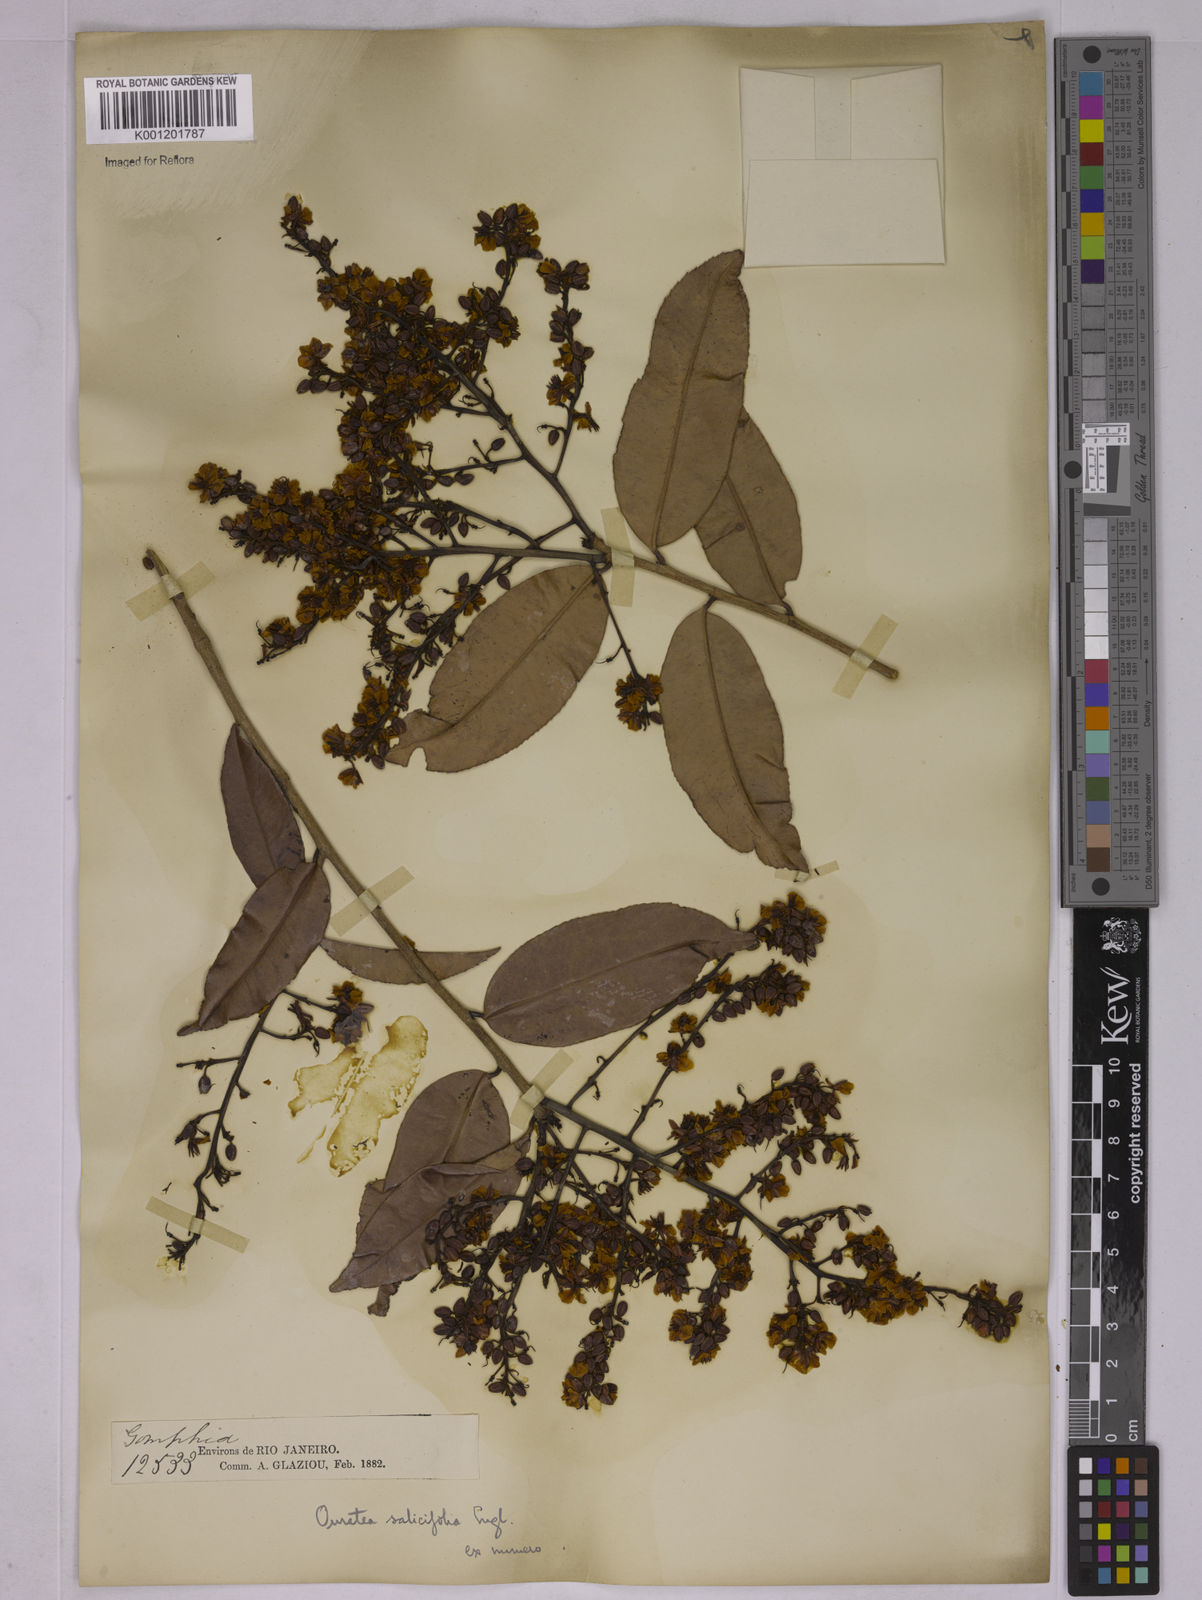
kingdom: Plantae
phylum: Tracheophyta
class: Magnoliopsida
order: Malpighiales
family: Ochnaceae
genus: Ouratea
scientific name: Ouratea salicifolia
